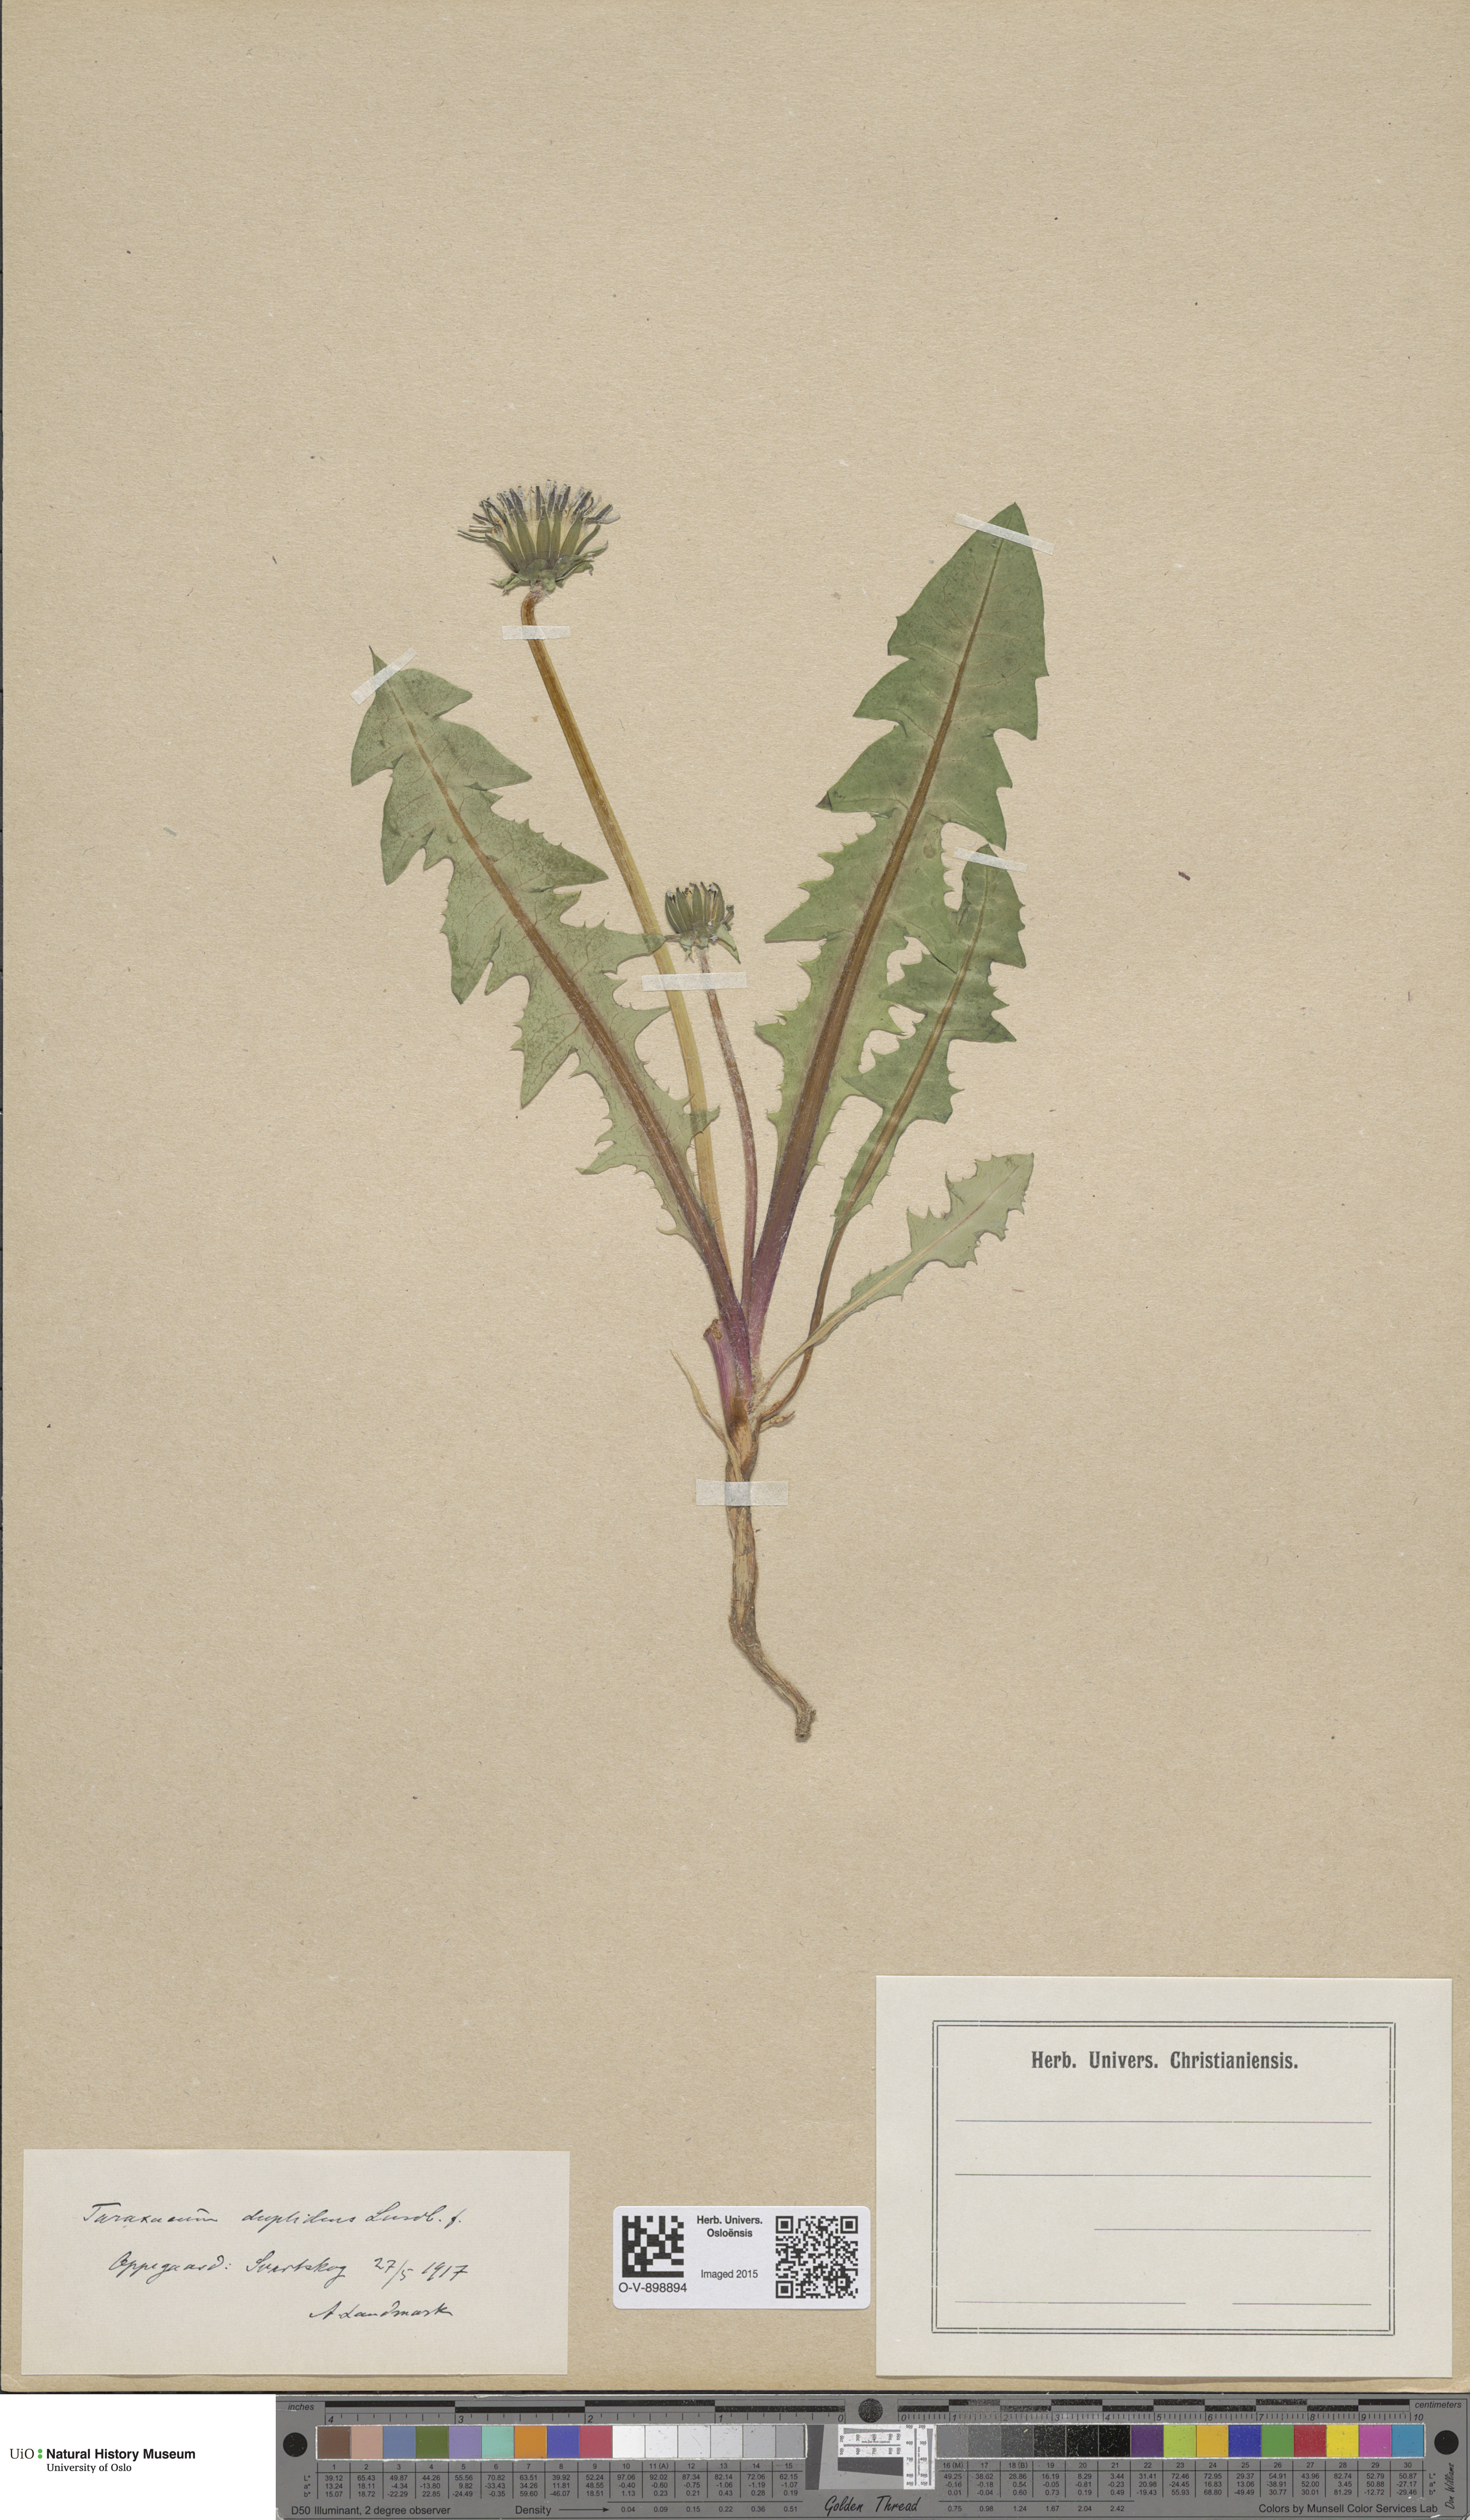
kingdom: Plantae
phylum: Tracheophyta
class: Magnoliopsida
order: Asterales
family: Asteraceae
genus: Taraxacum
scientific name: Taraxacum ostenfeldii
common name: Ostenfeld's dandelion
